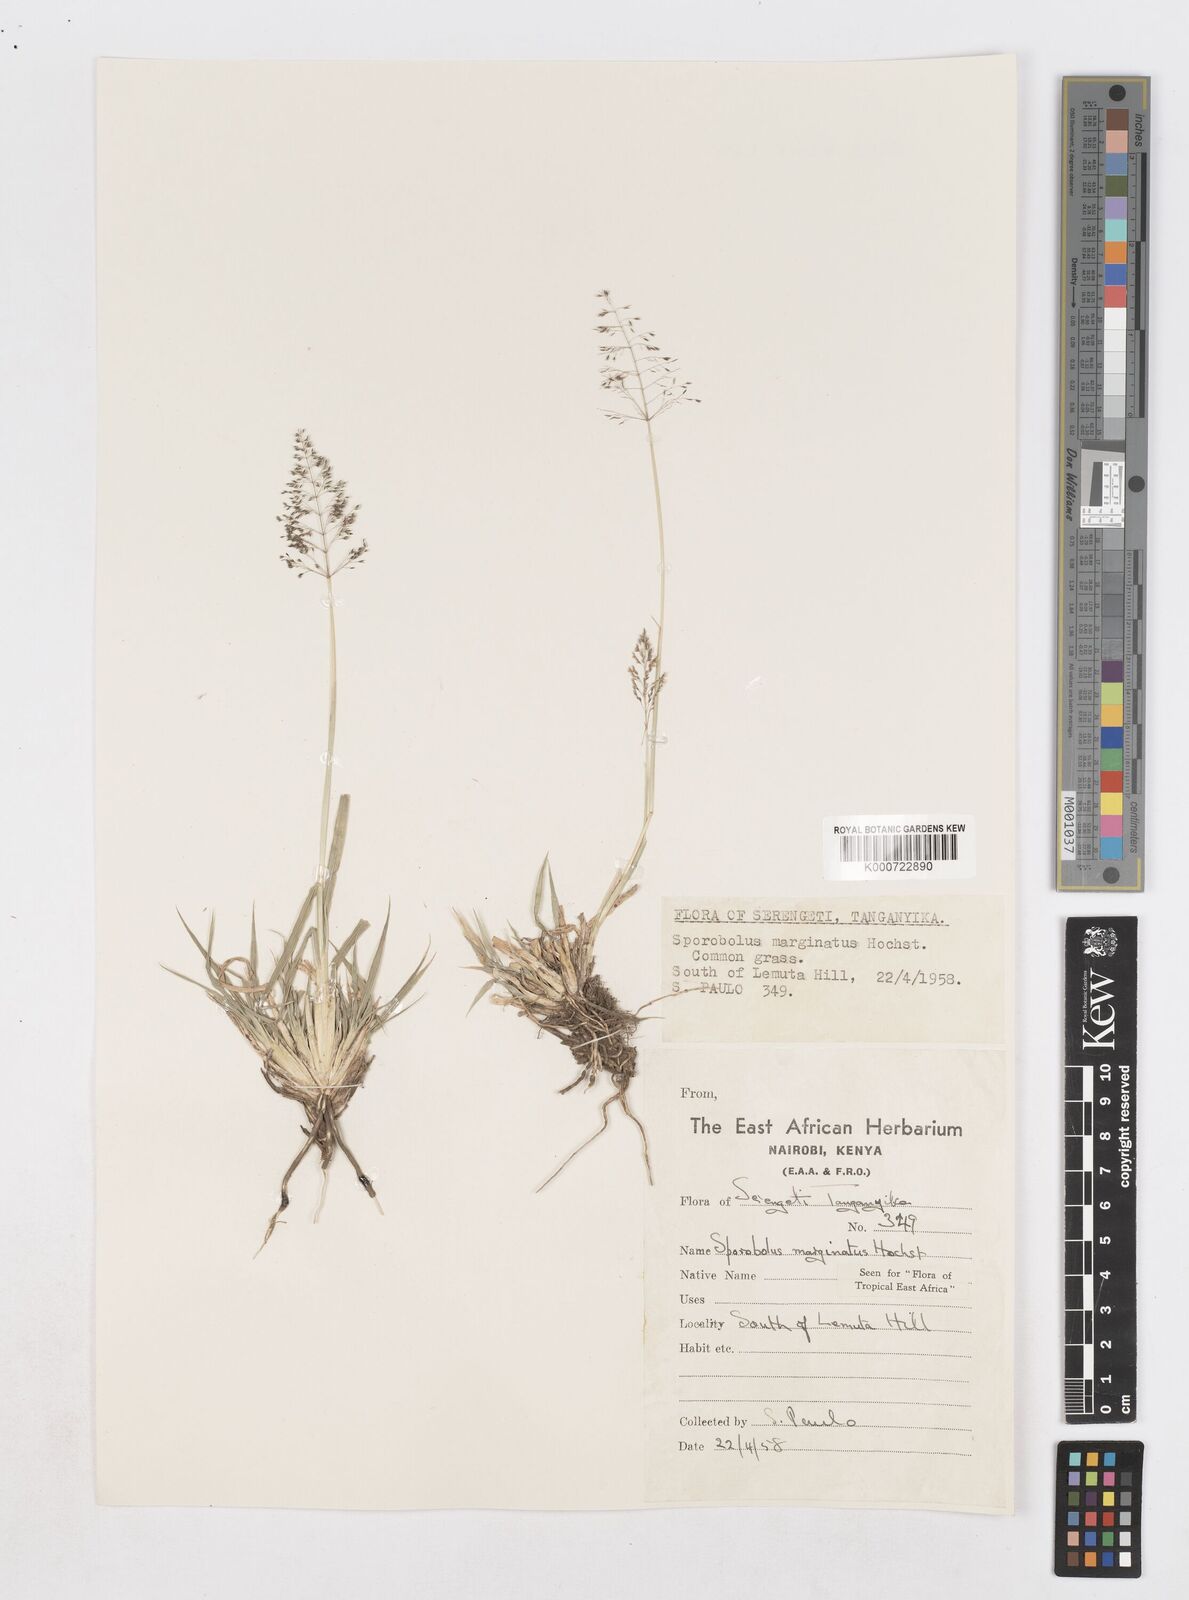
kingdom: Plantae
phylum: Tracheophyta
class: Liliopsida
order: Poales
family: Poaceae
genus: Sporobolus
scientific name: Sporobolus ioclados
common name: Pan dropseed
